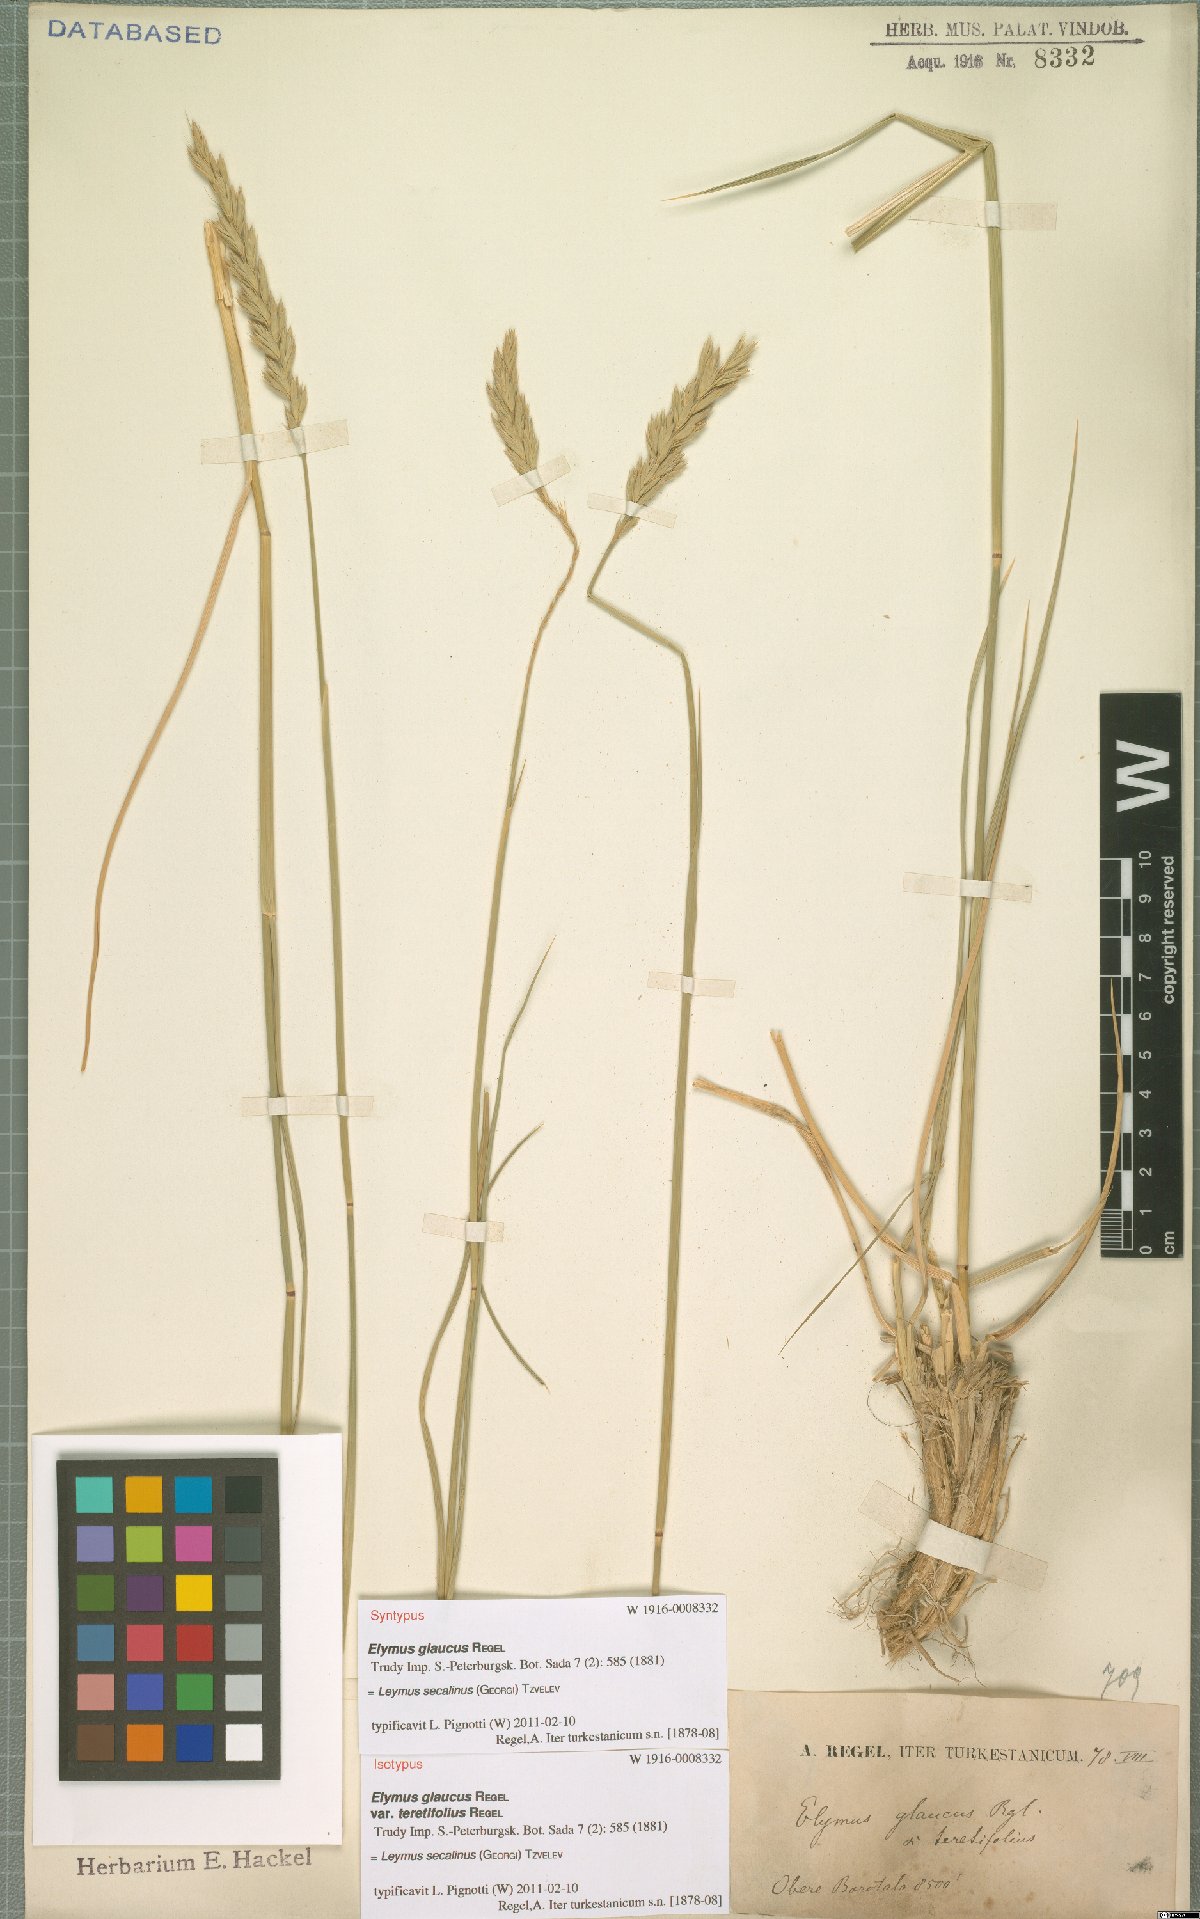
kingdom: Plantae
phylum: Tracheophyta
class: Liliopsida
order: Poales
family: Poaceae
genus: Leymus
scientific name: Leymus secalinus
